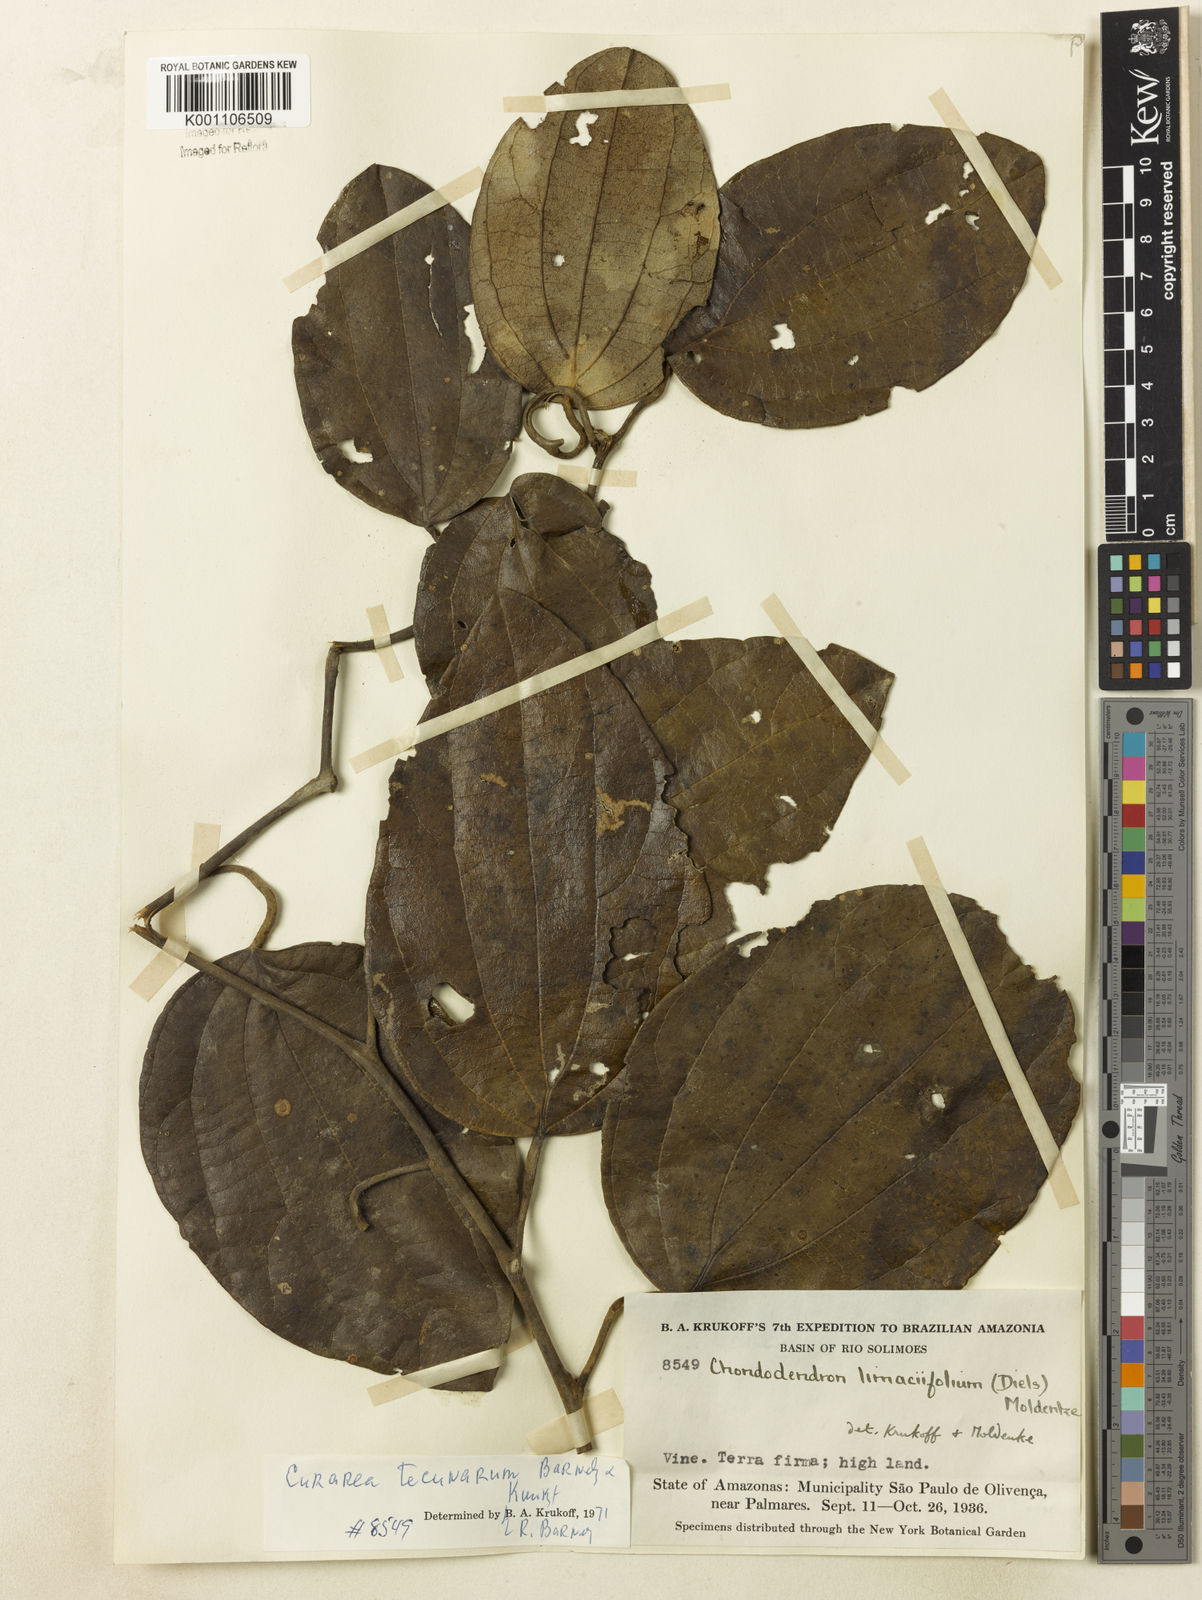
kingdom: Plantae
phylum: Tracheophyta
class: Magnoliopsida
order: Ranunculales
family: Menispermaceae
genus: Curarea
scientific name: Curarea tecunarum
